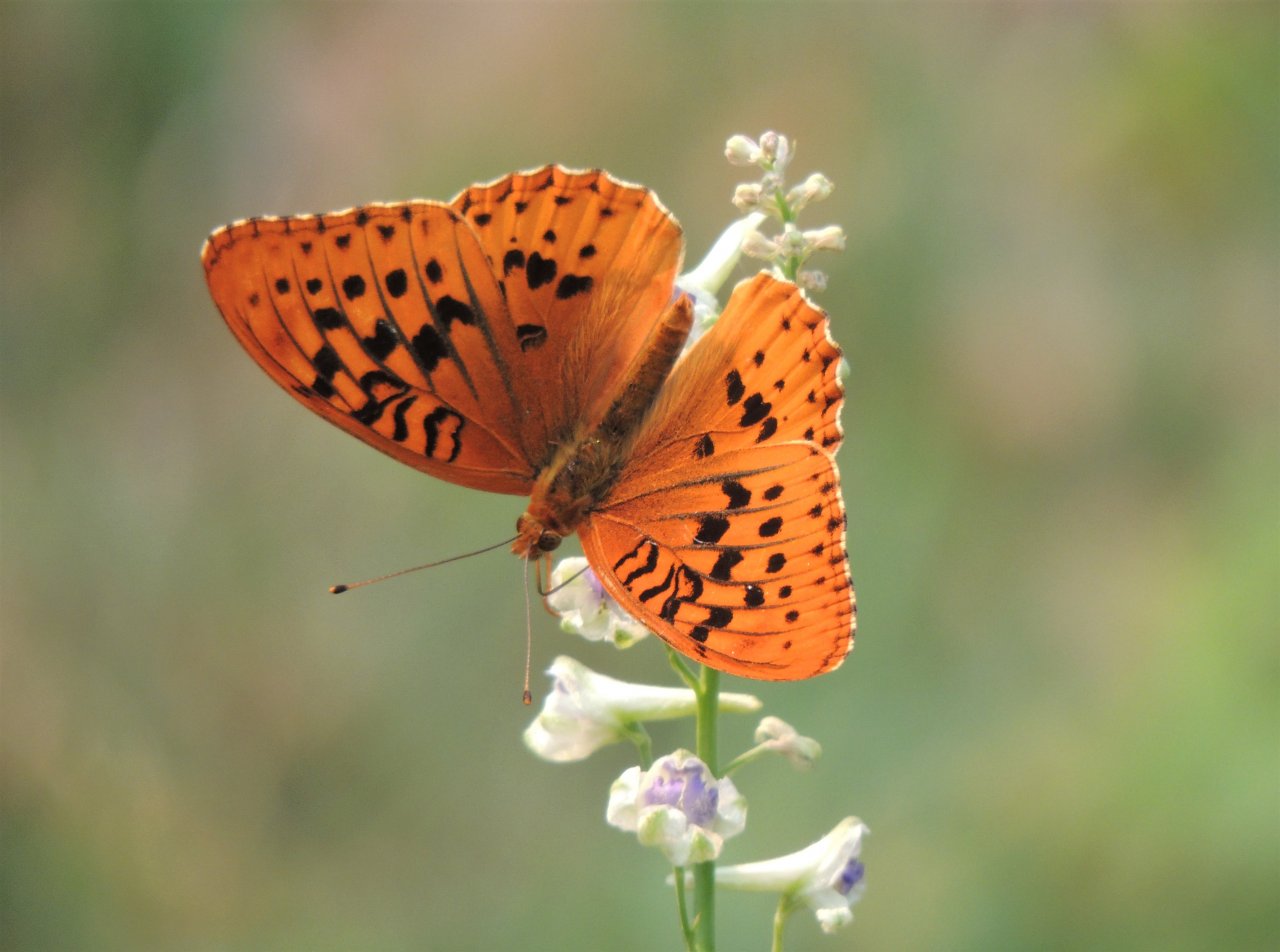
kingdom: Animalia
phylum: Arthropoda
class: Insecta
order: Lepidoptera
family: Nymphalidae
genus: Speyeria
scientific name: Speyeria cybele
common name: Great Spangled Fritillary
